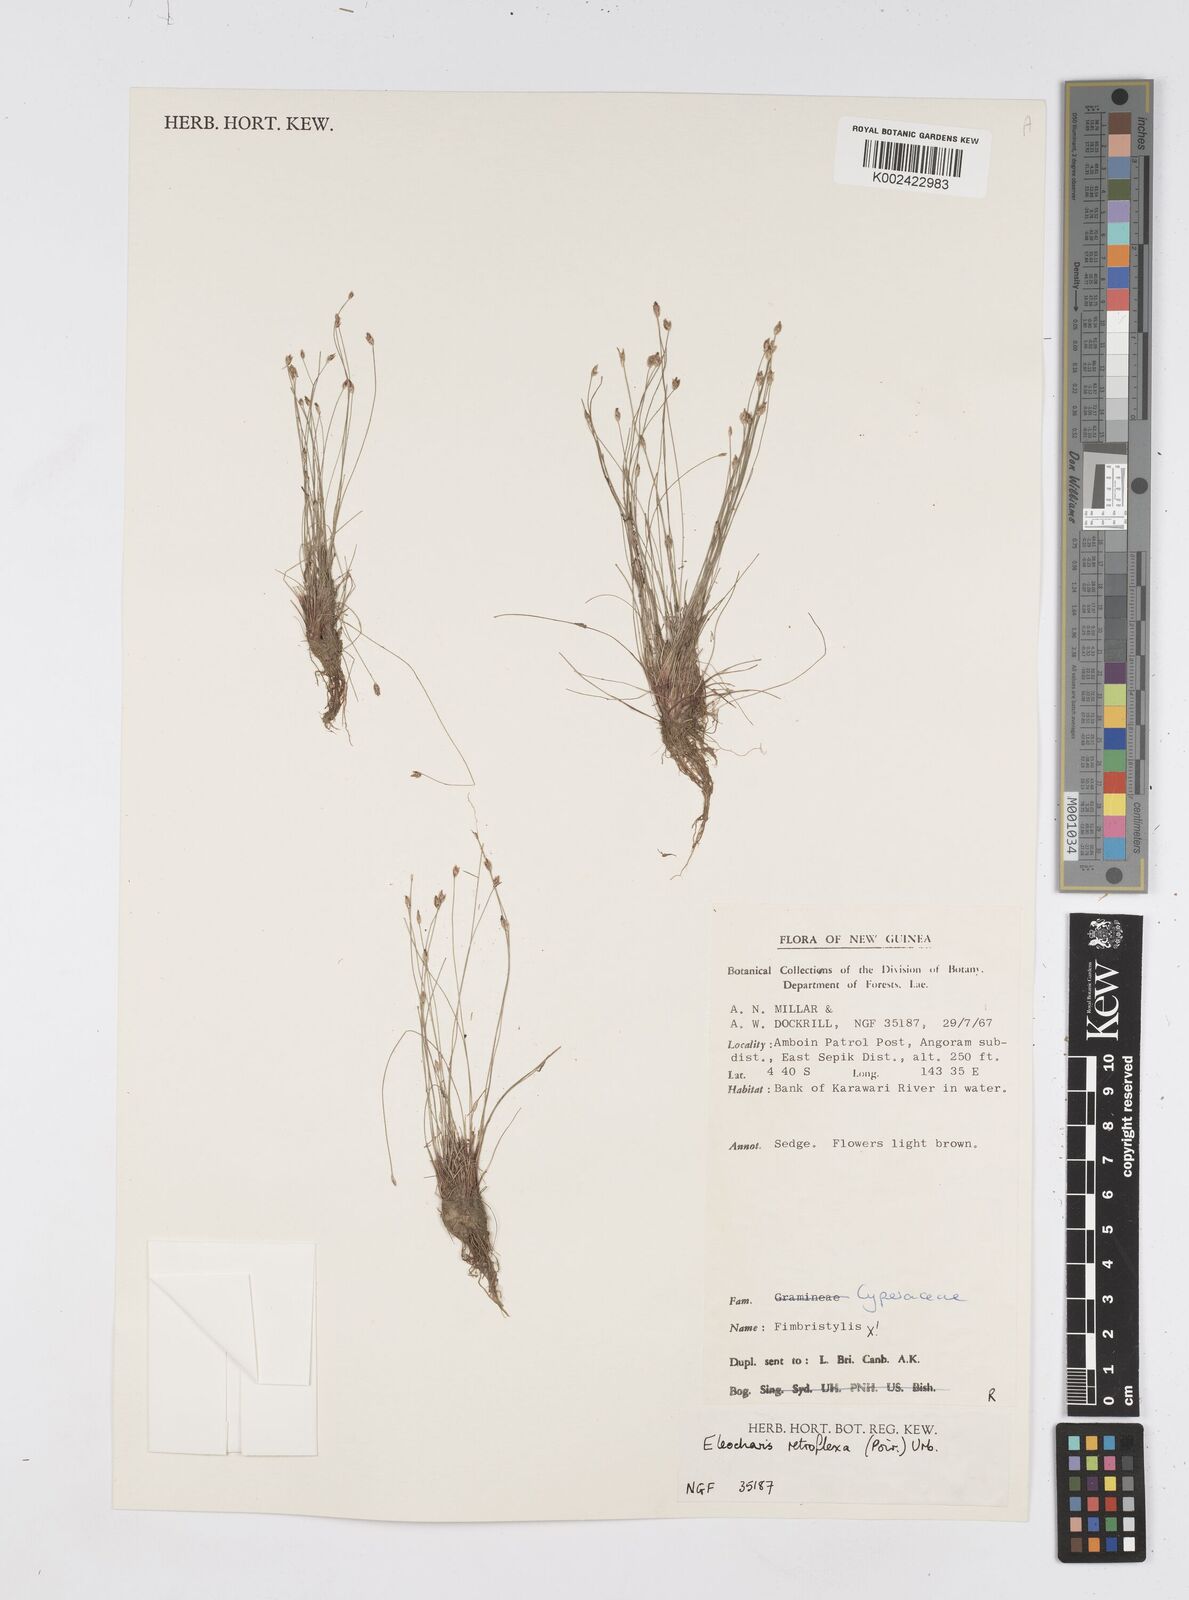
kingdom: Plantae
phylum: Tracheophyta
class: Liliopsida
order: Poales
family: Cyperaceae
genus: Eleocharis
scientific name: Eleocharis retroflexa
